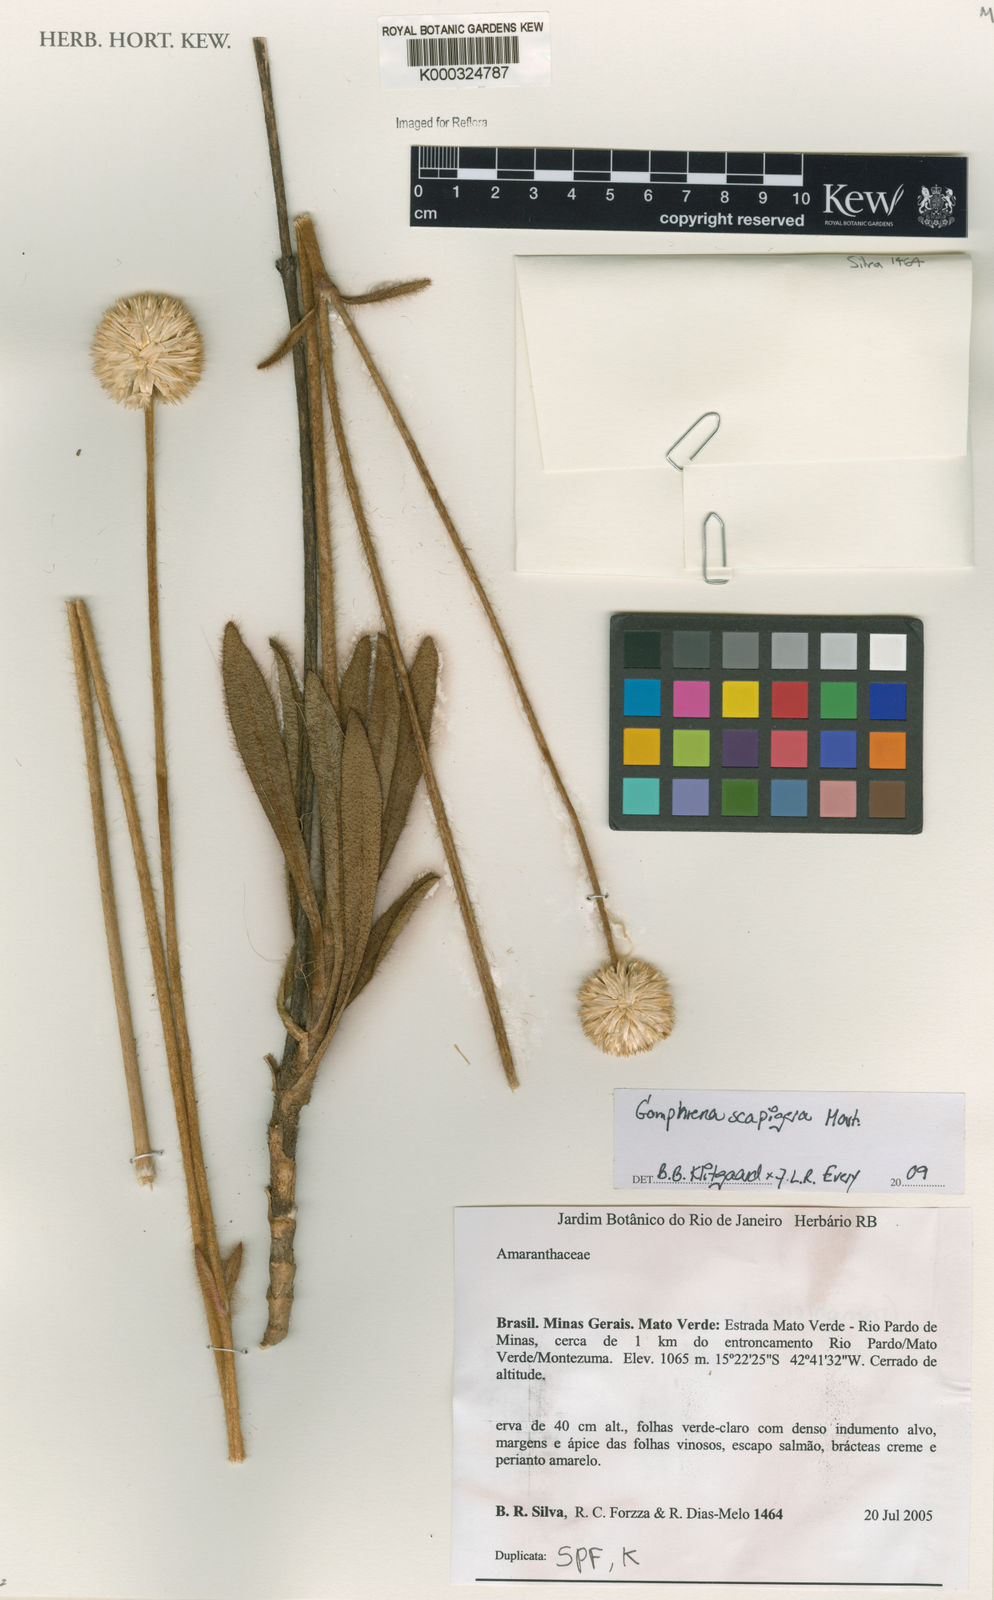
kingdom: Plantae
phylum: Tracheophyta
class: Magnoliopsida
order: Caryophyllales
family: Amaranthaceae
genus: Gomphrena
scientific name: Gomphrena scapigera
